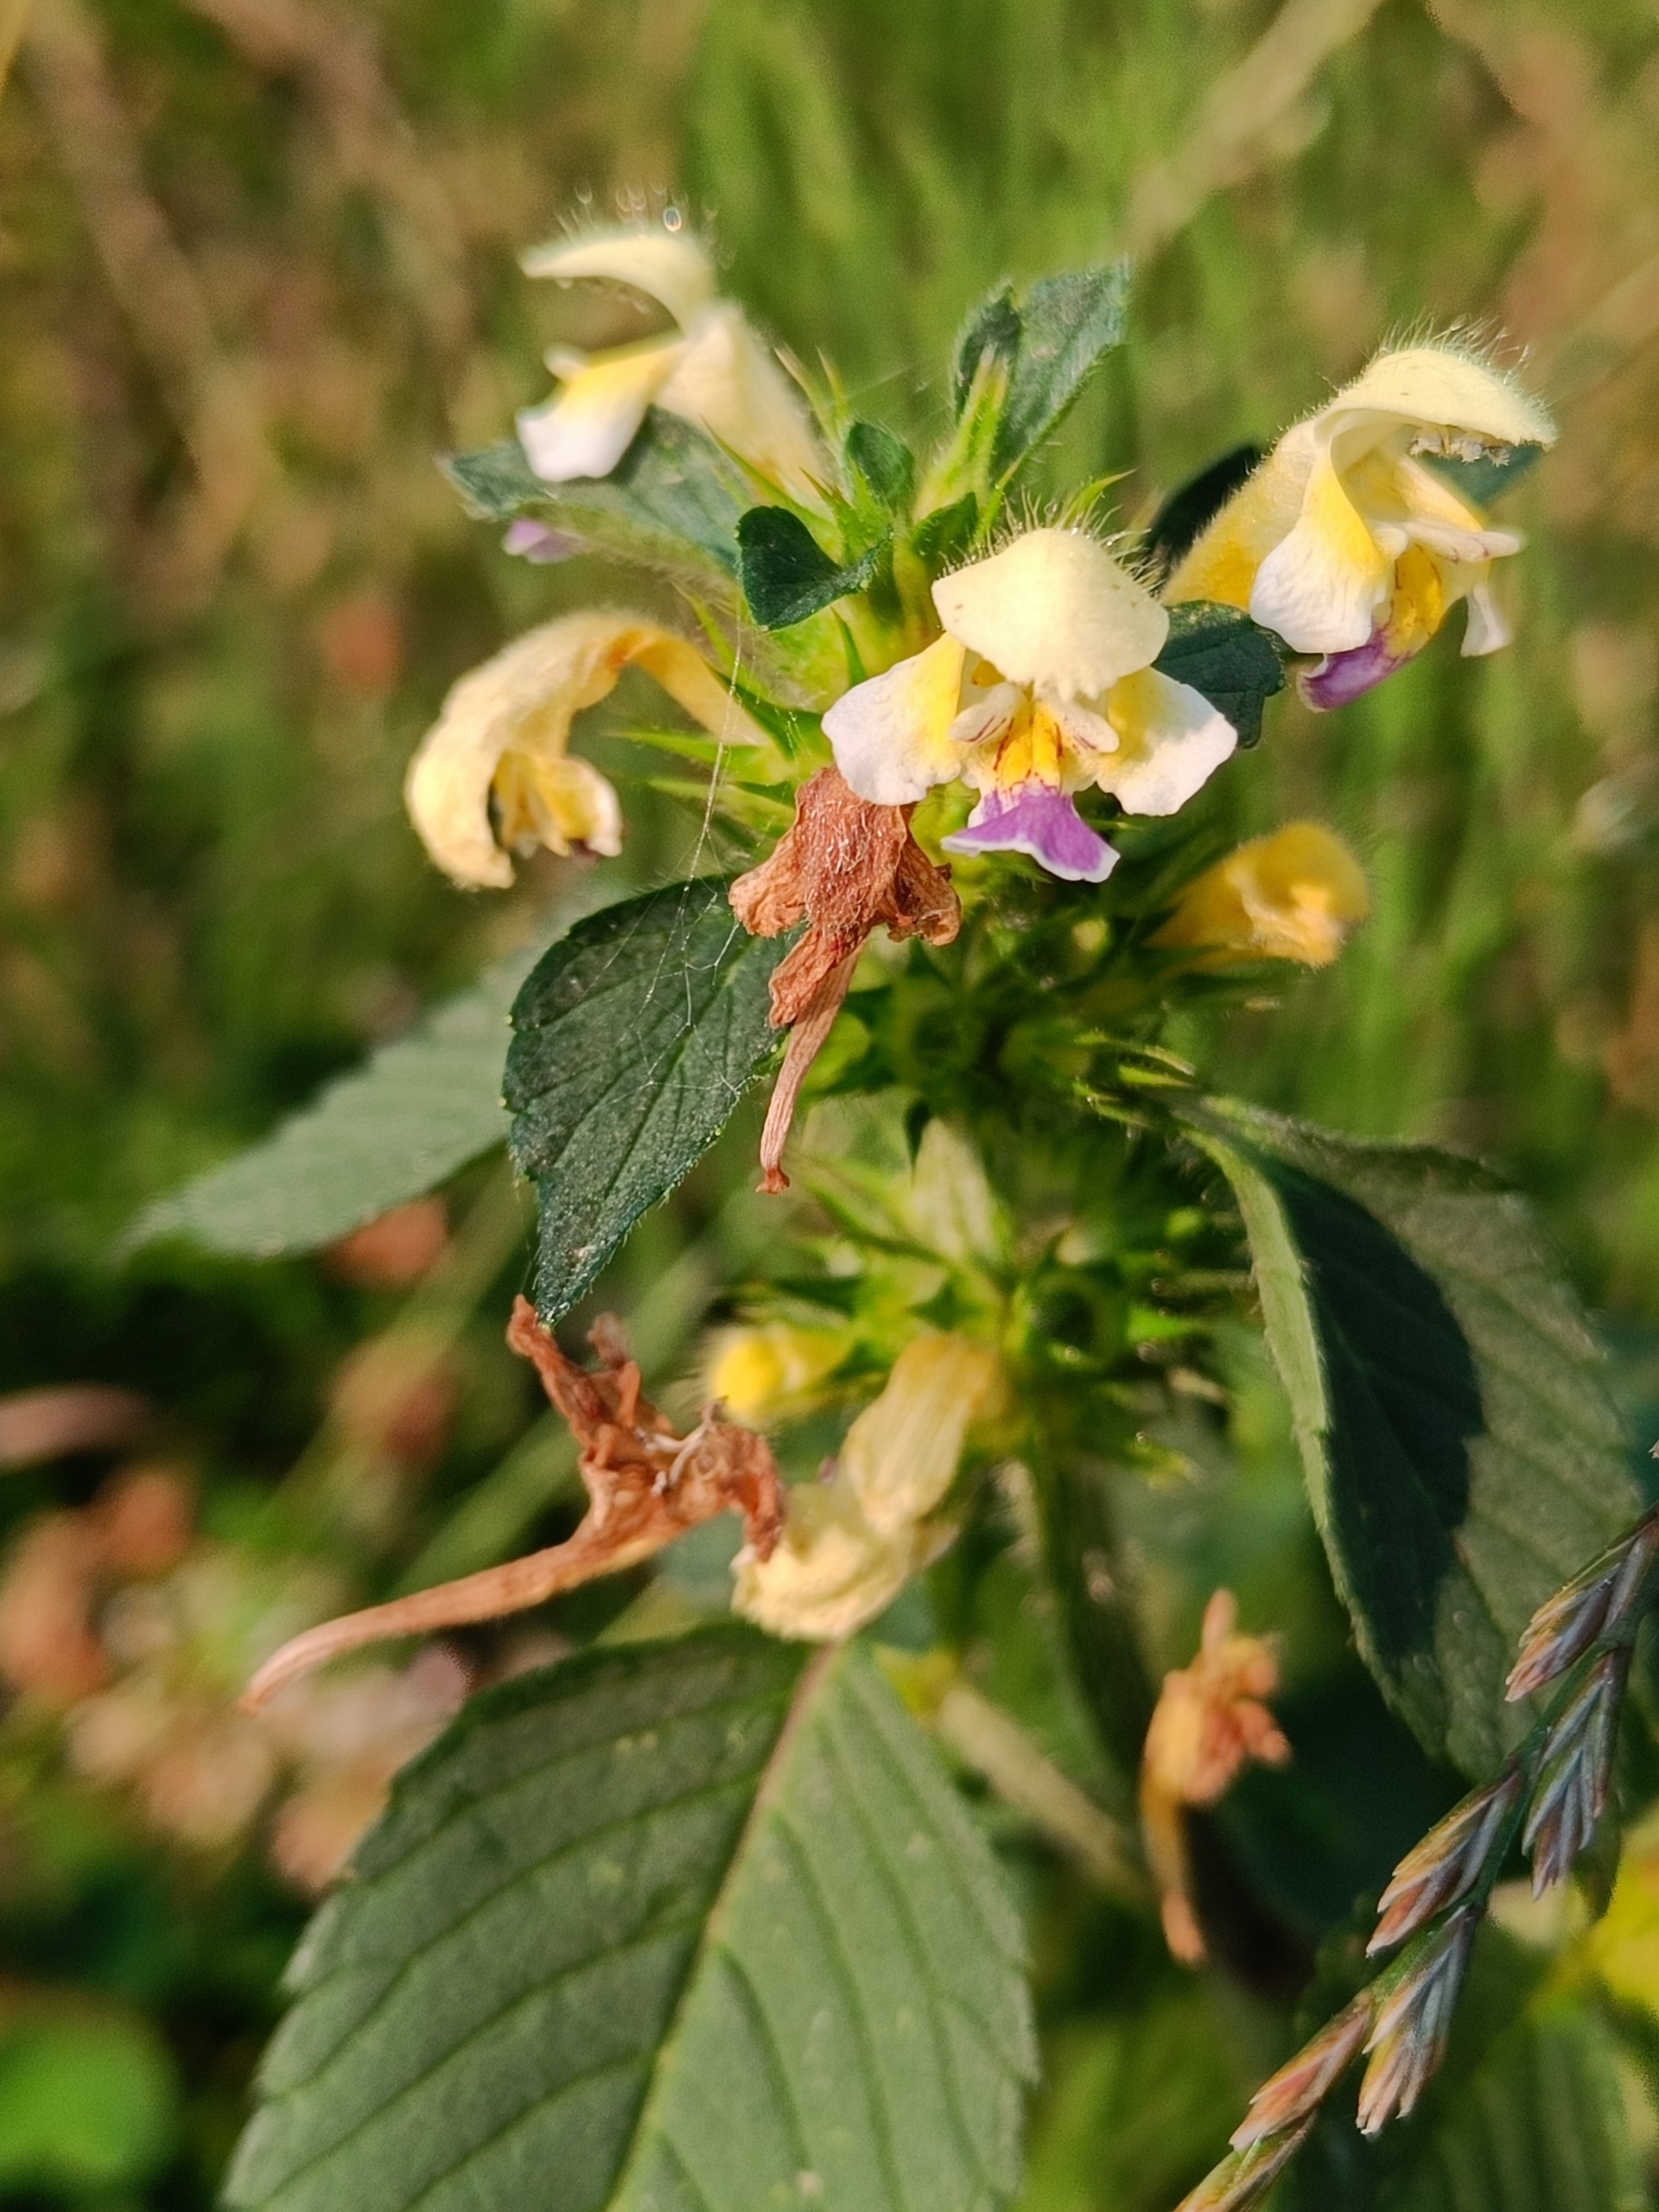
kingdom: Plantae
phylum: Tracheophyta
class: Magnoliopsida
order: Lamiales
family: Lamiaceae
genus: Galeopsis
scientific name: Galeopsis speciosa
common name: Hamp-hanekro
